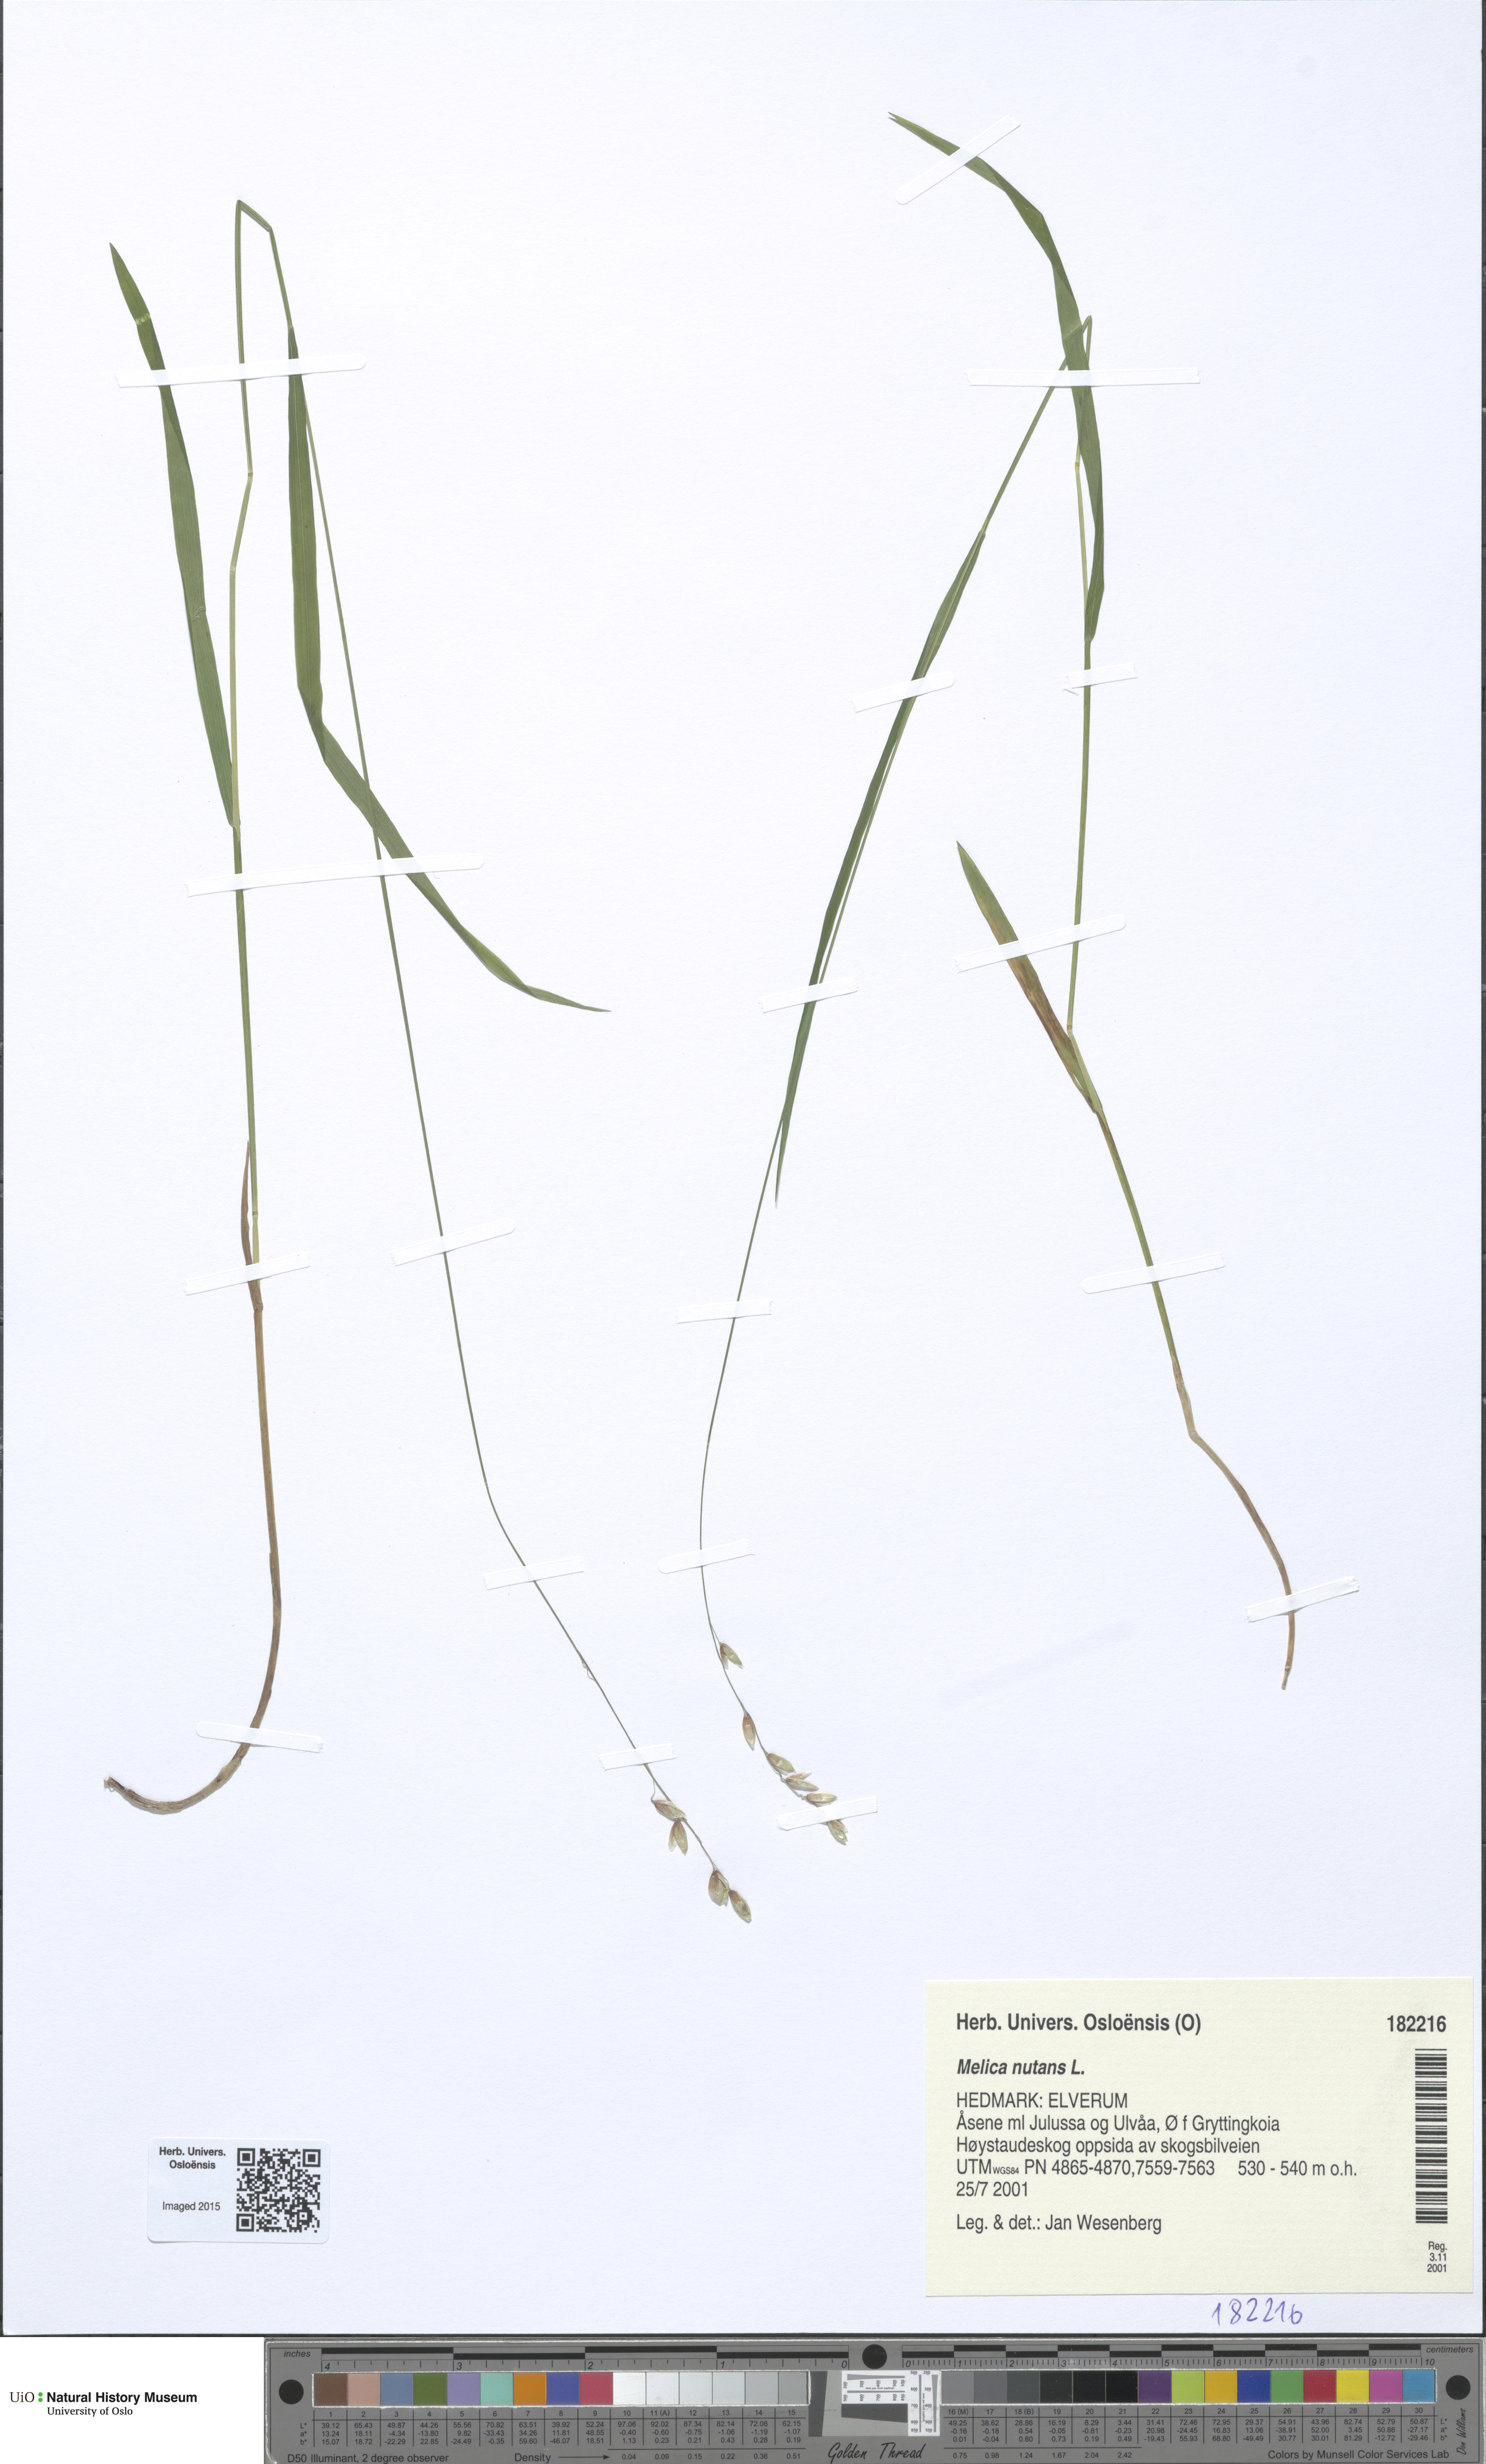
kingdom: Plantae
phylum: Tracheophyta
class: Liliopsida
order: Poales
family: Poaceae
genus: Melica
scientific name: Melica nutans
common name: Mountain melick
